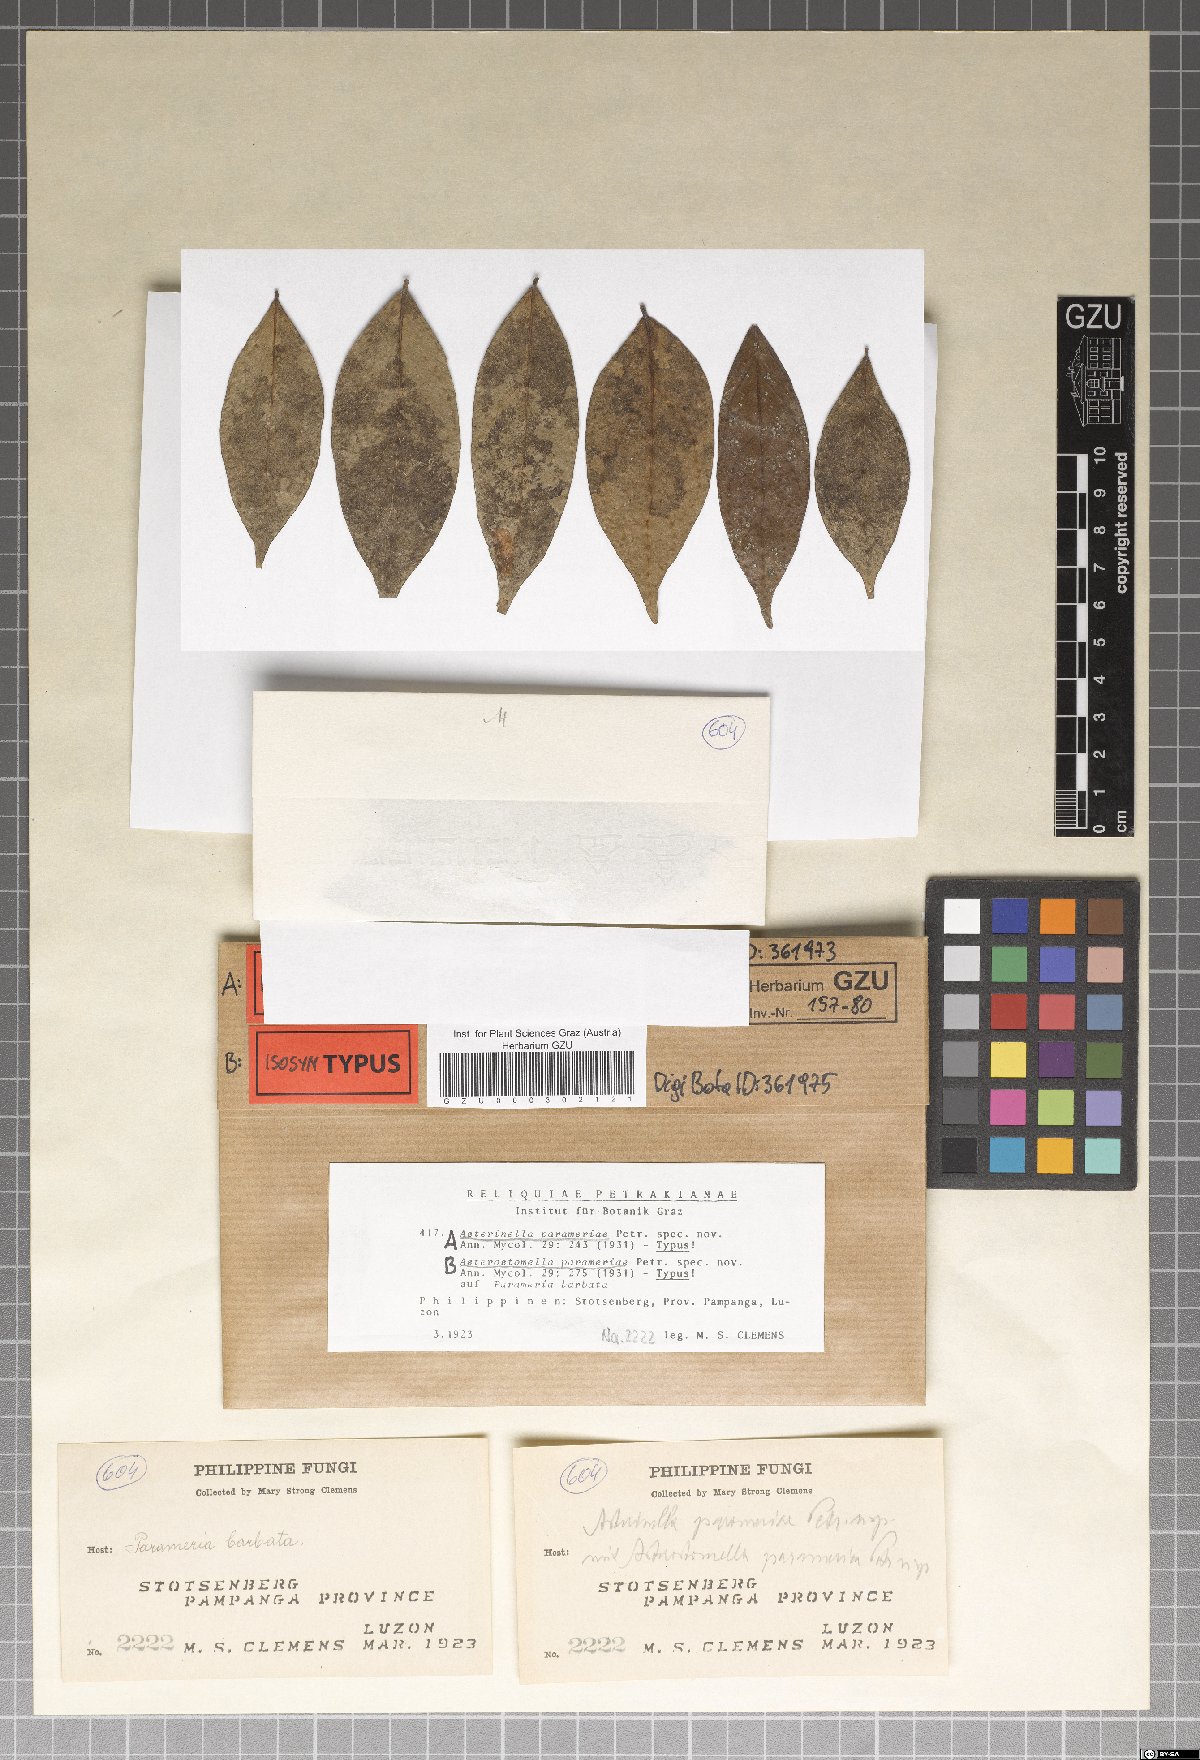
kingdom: Fungi
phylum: Ascomycota
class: Dothideomycetes
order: Asterinales
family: Asterinaceae
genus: Asterostomella
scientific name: Asterostomella parameriae
